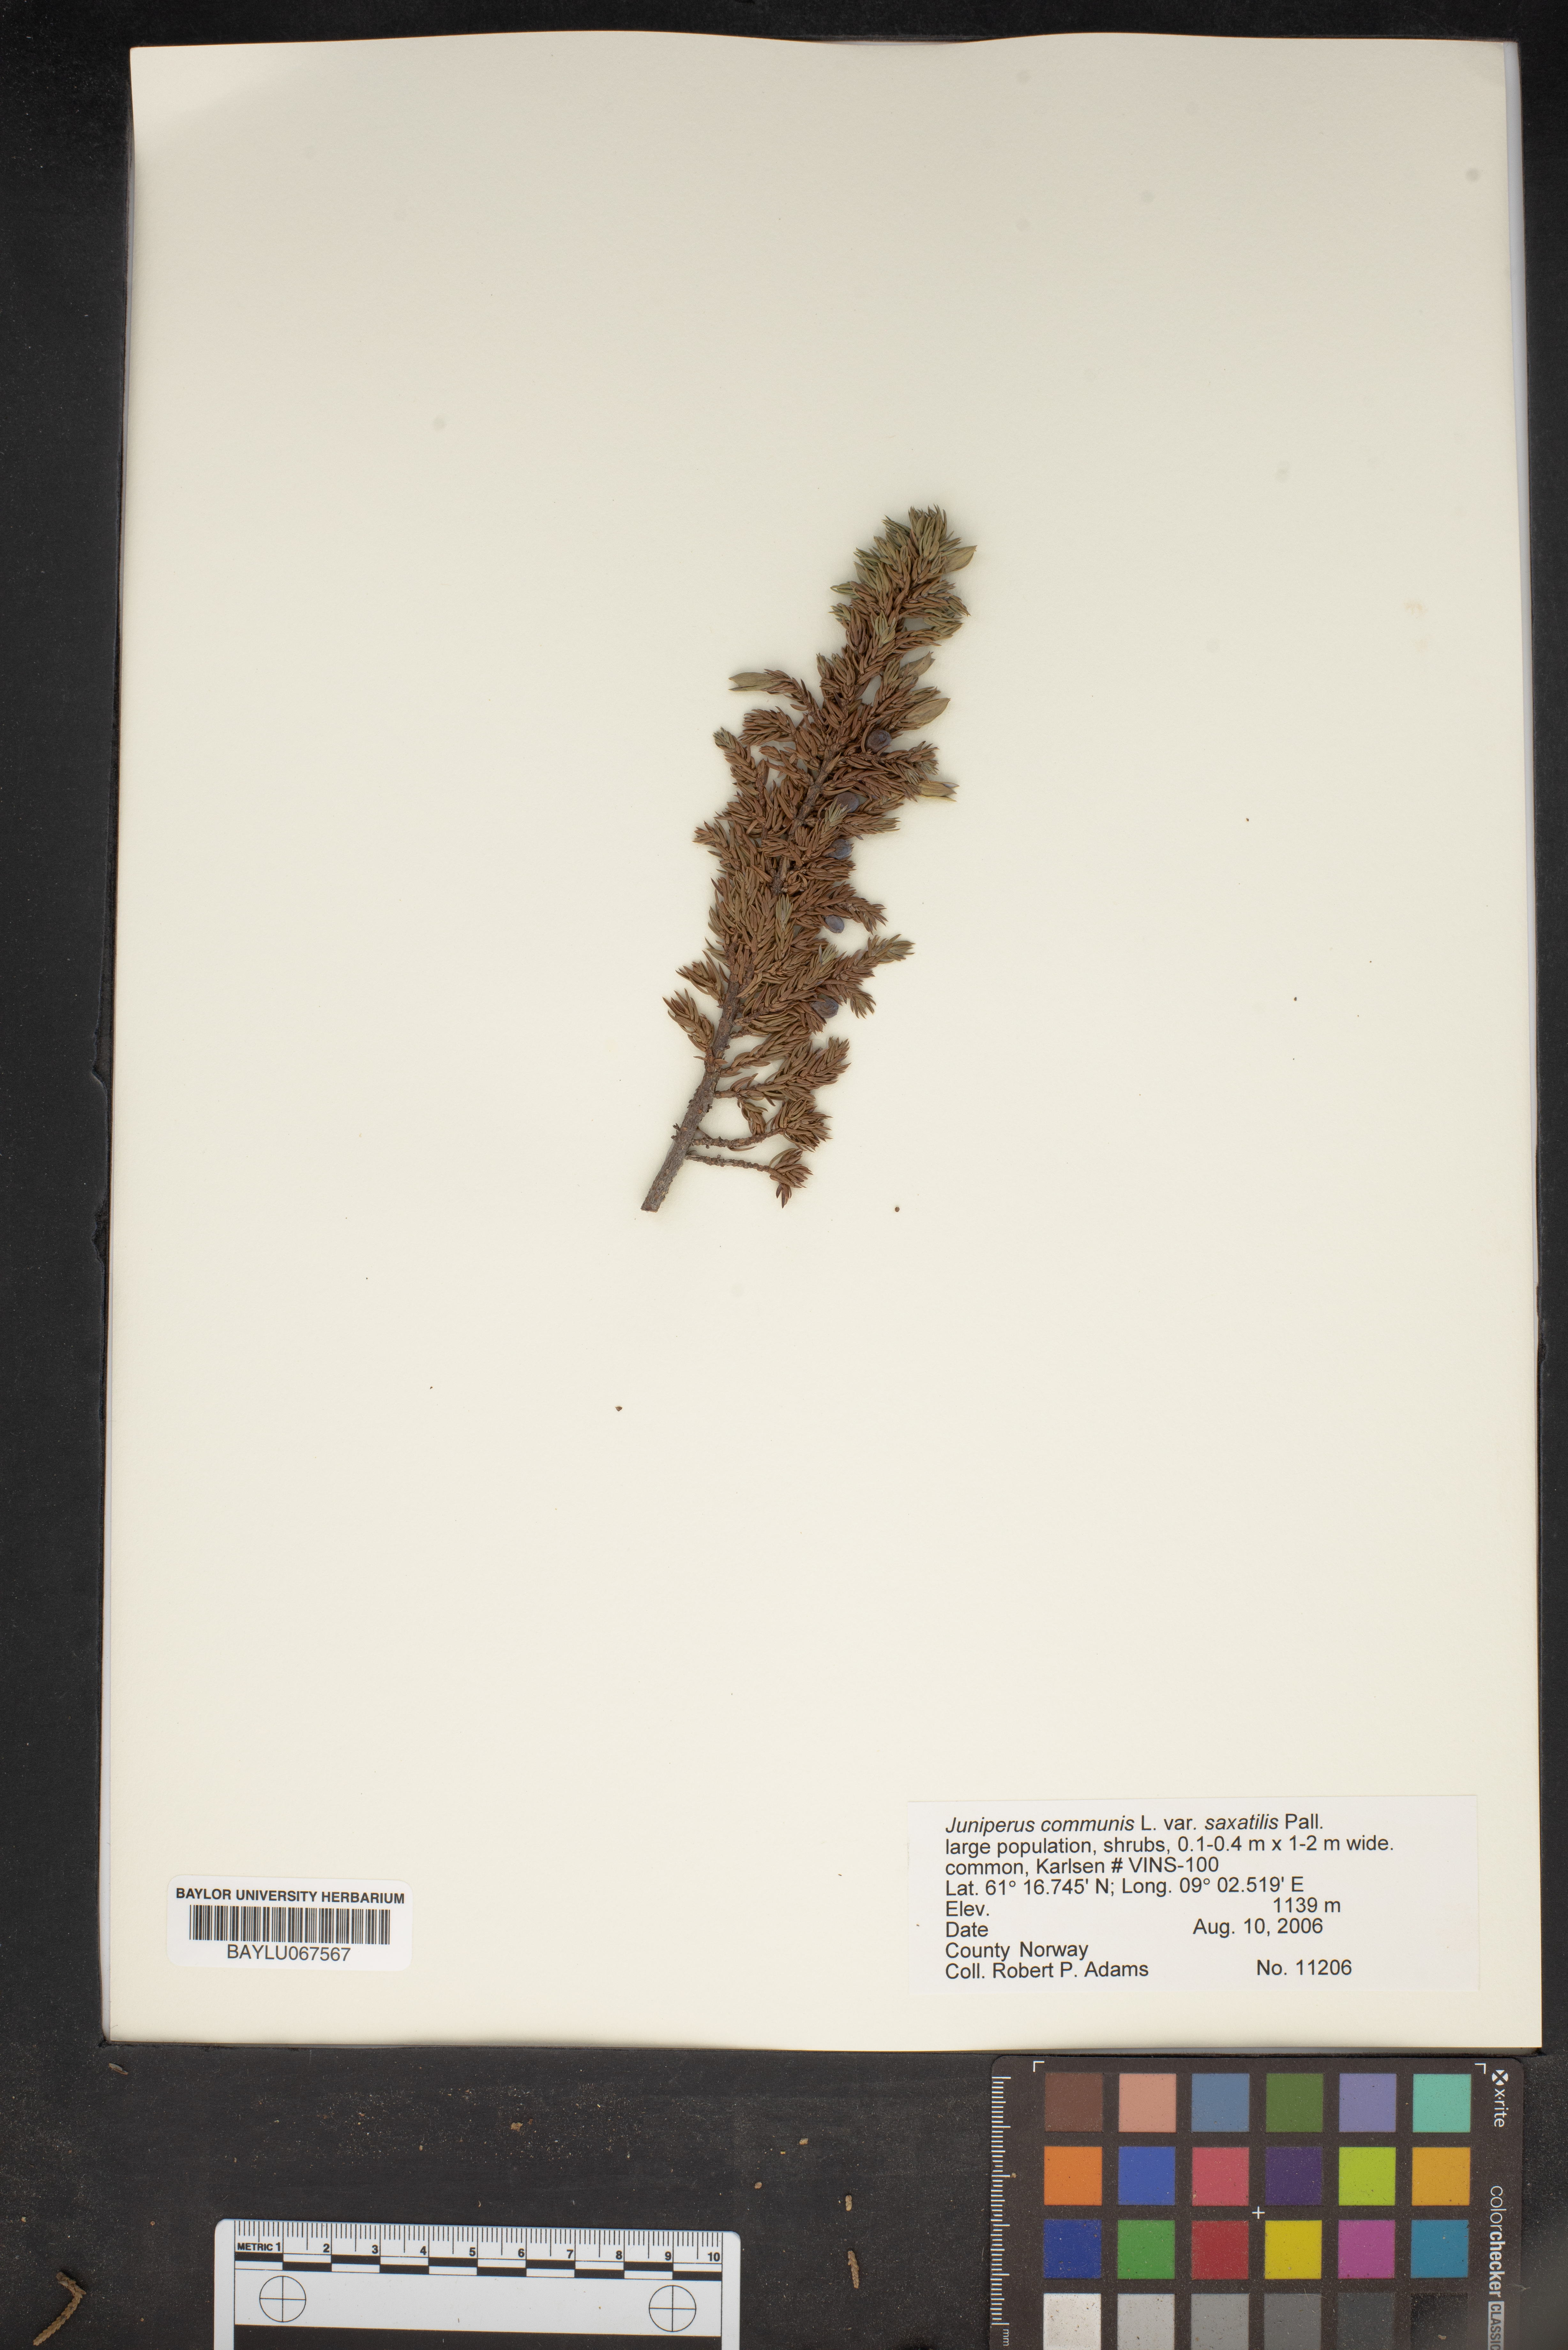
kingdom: Plantae
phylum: Tracheophyta
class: Pinopsida
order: Pinales
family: Cupressaceae
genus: Juniperus
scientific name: Juniperus communis
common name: Common juniper
